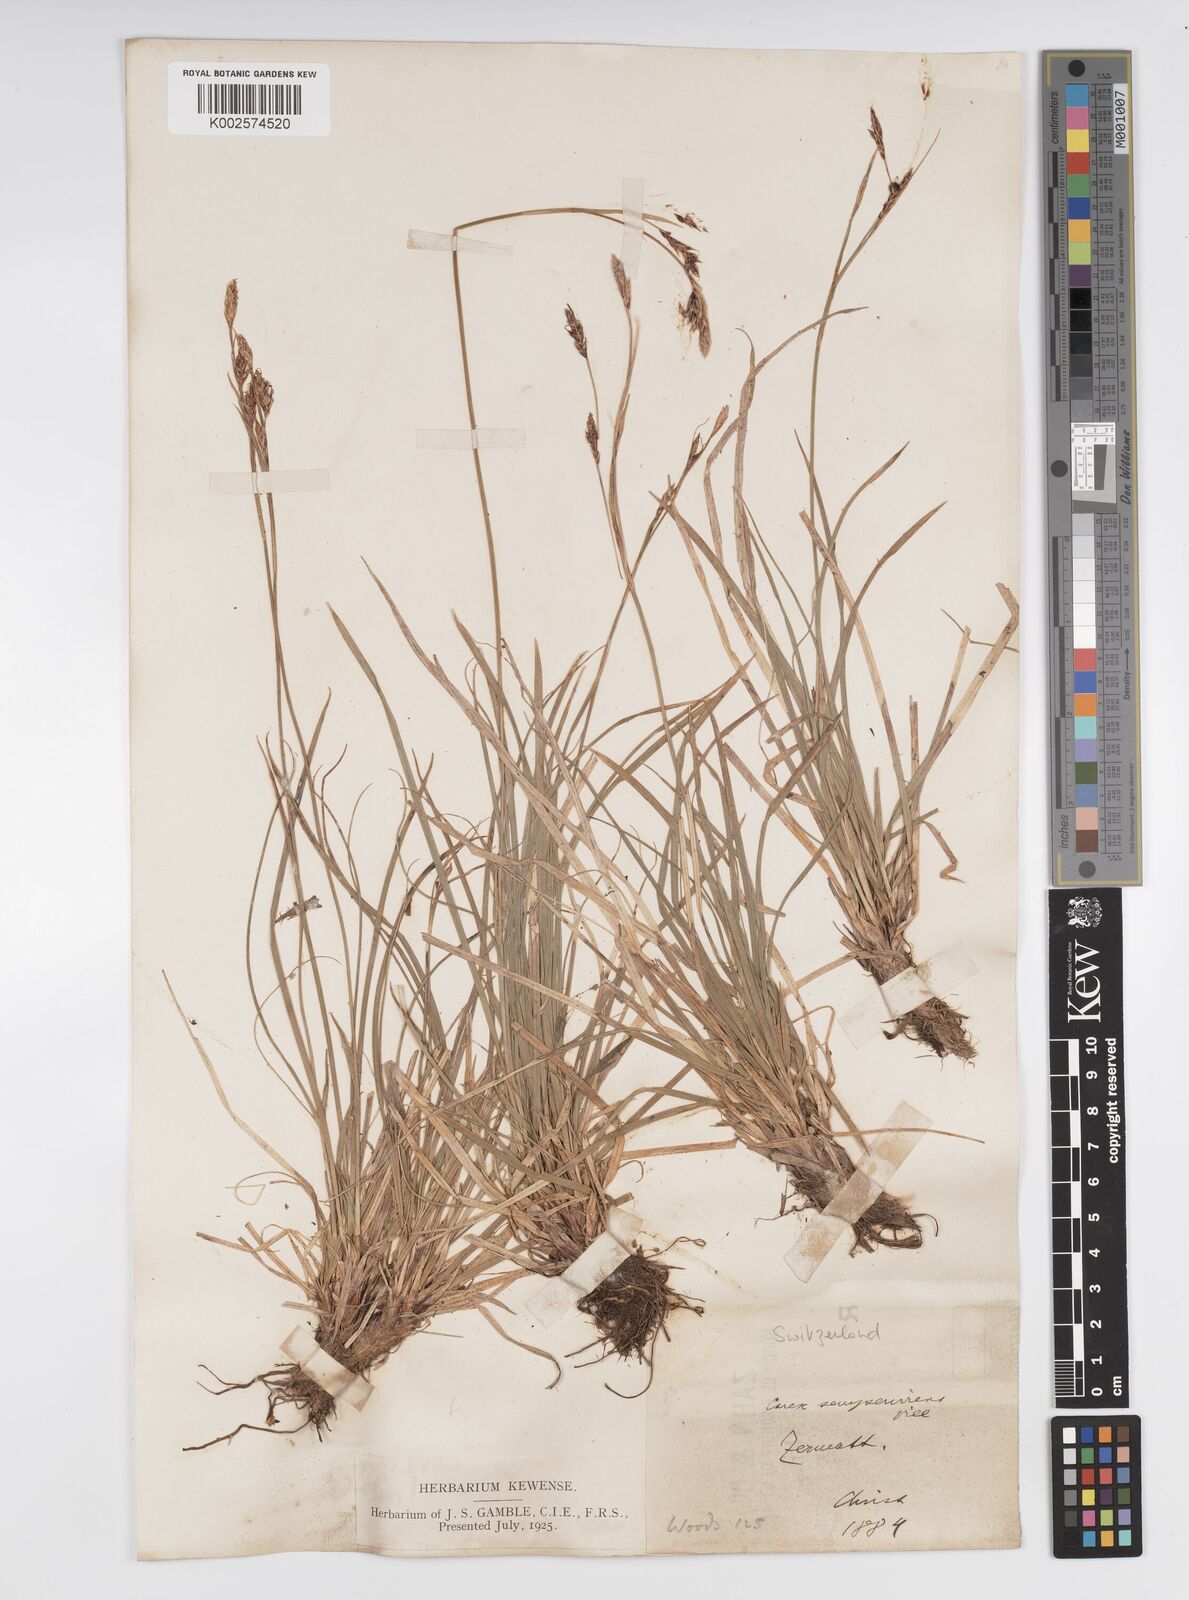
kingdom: Plantae
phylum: Tracheophyta
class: Liliopsida
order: Poales
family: Cyperaceae
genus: Carex
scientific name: Carex sempervirens
